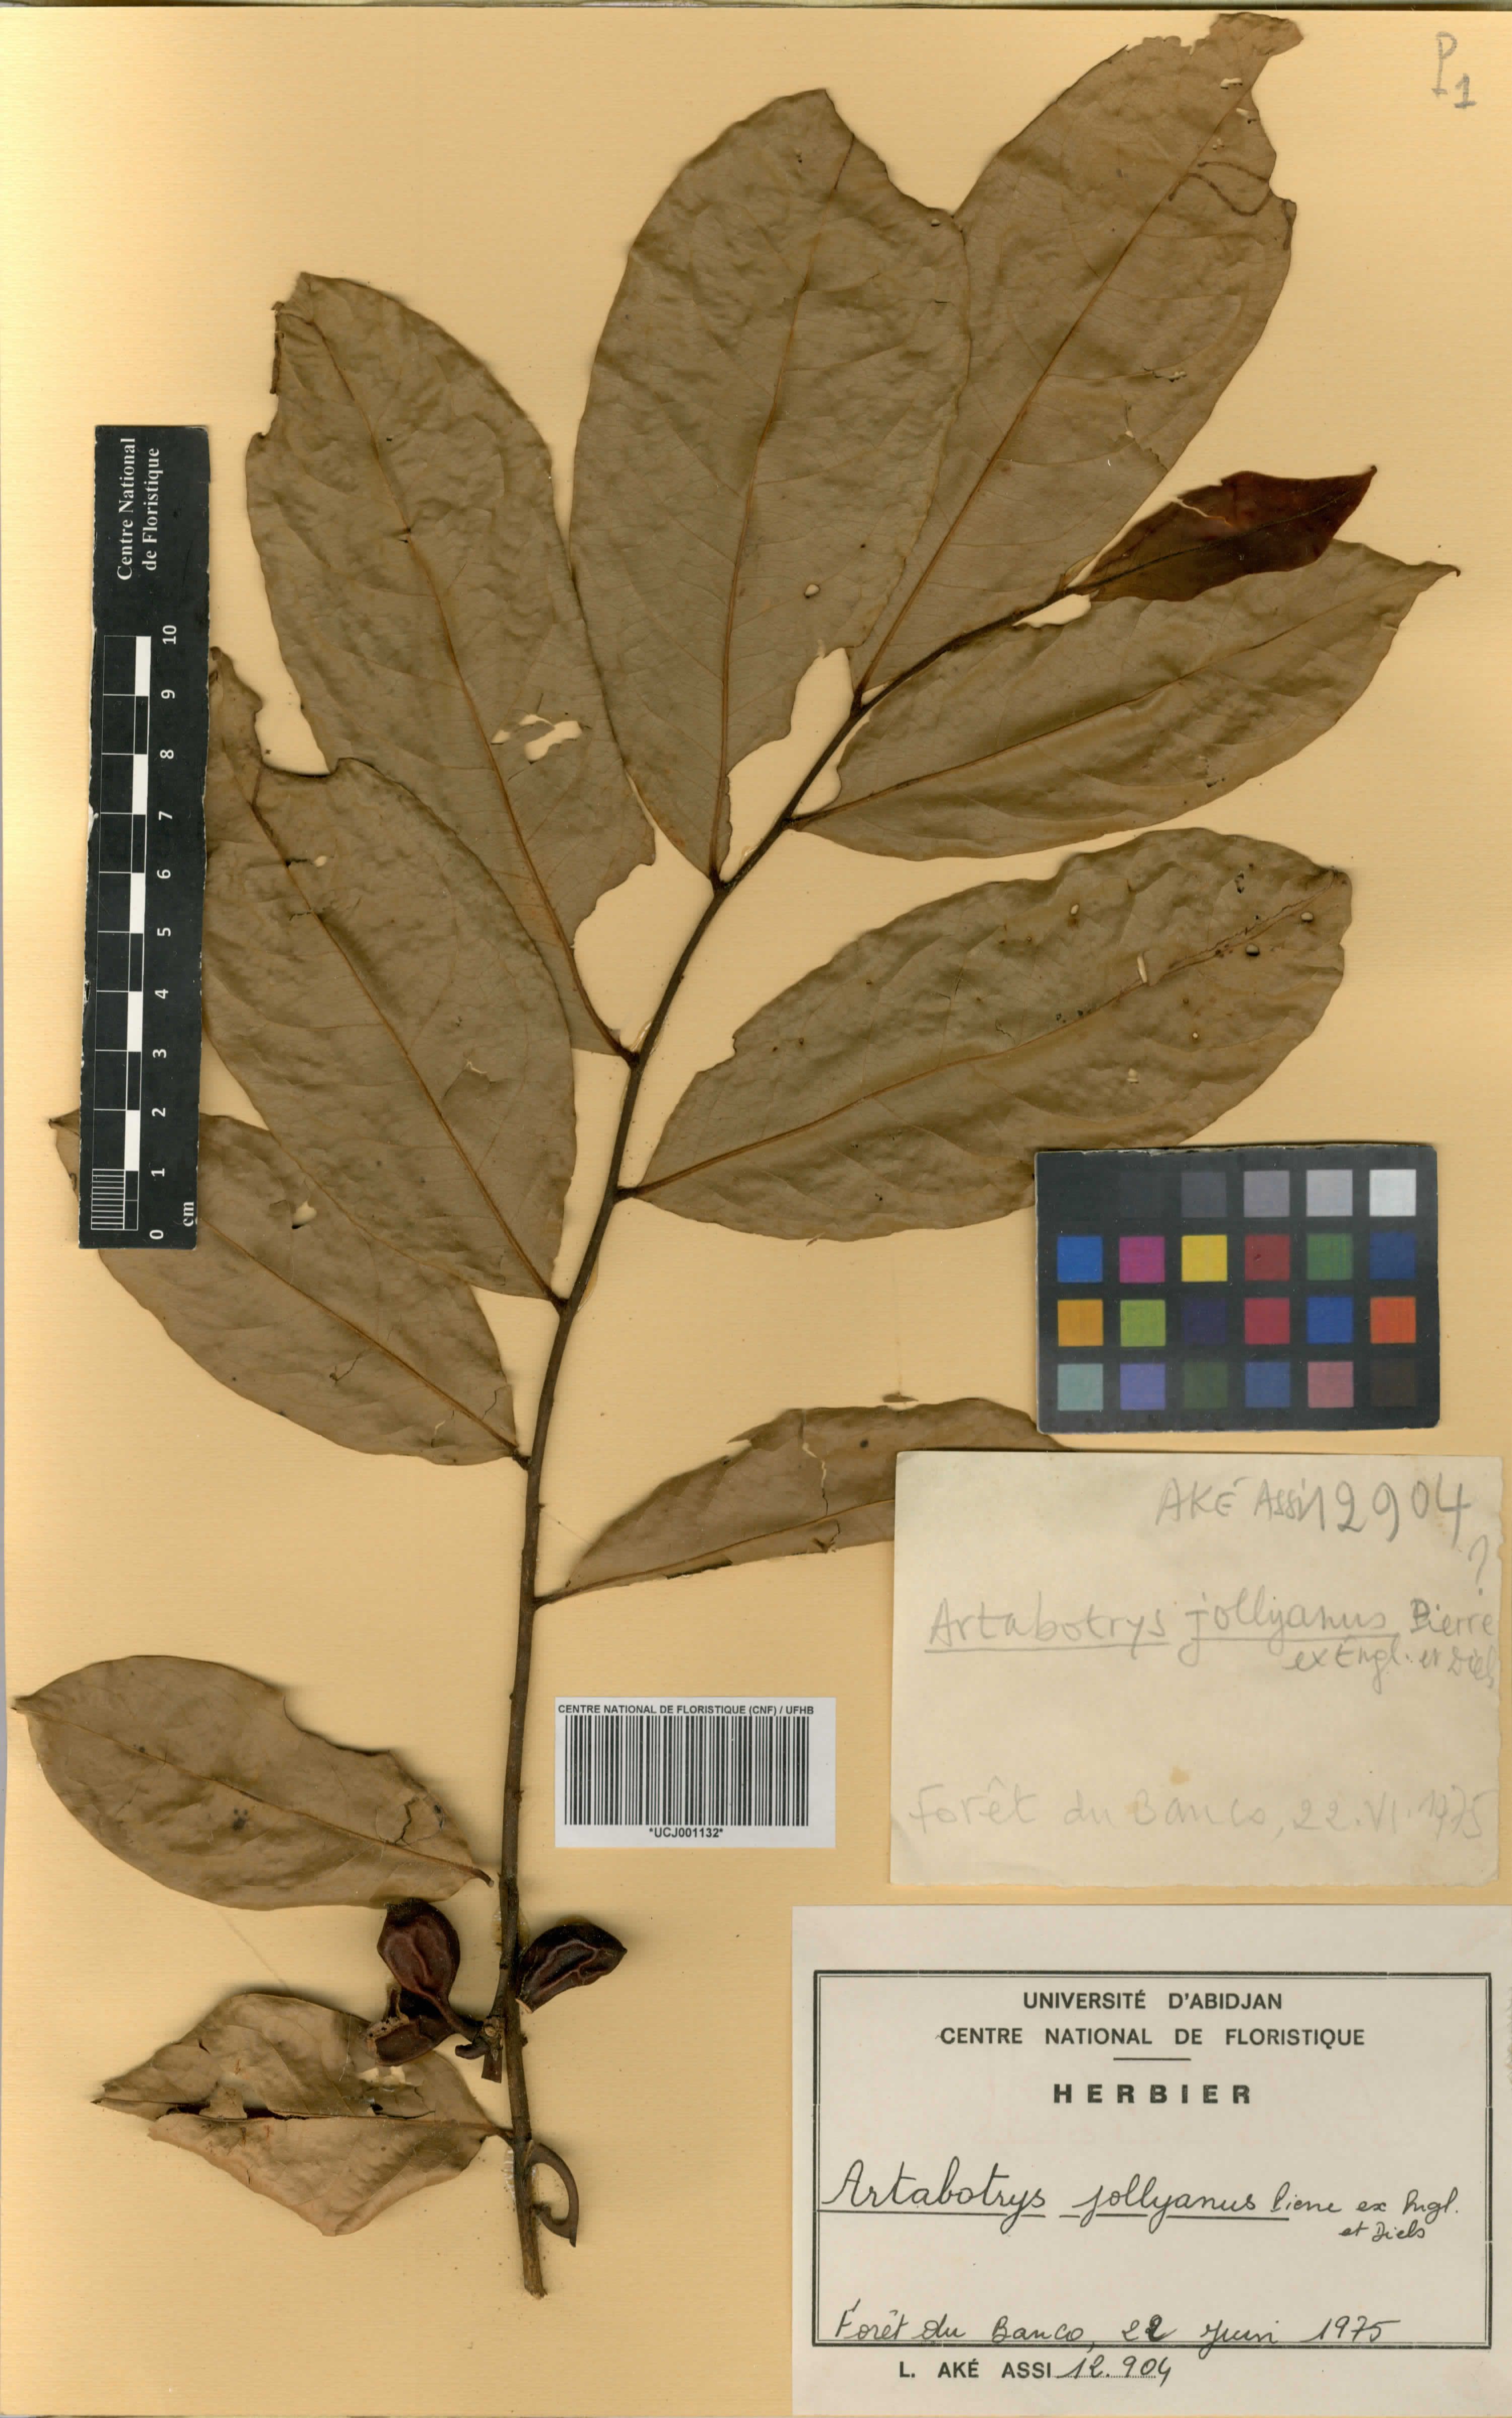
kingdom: Plantae
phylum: Tracheophyta
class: Magnoliopsida
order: Magnoliales
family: Annonaceae
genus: Artabotrys
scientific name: Artabotrys jollyanus
